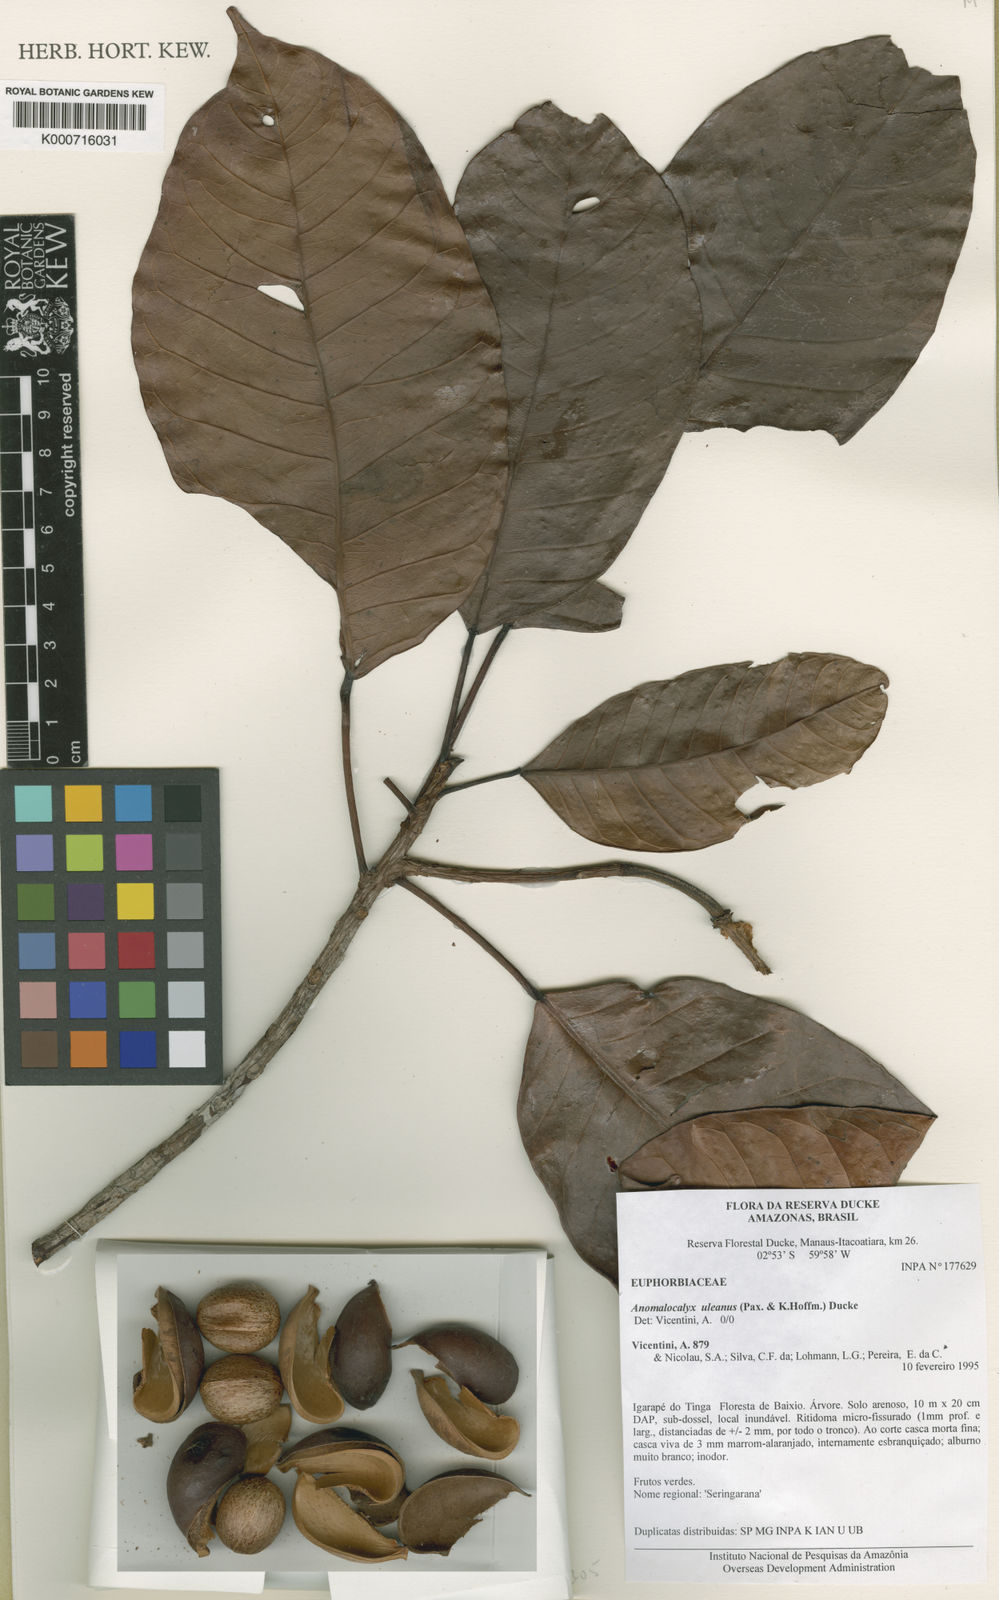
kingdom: Plantae
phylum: Tracheophyta
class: Magnoliopsida
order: Malpighiales
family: Euphorbiaceae
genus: Dodecastigma
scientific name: Dodecastigma uleanum
